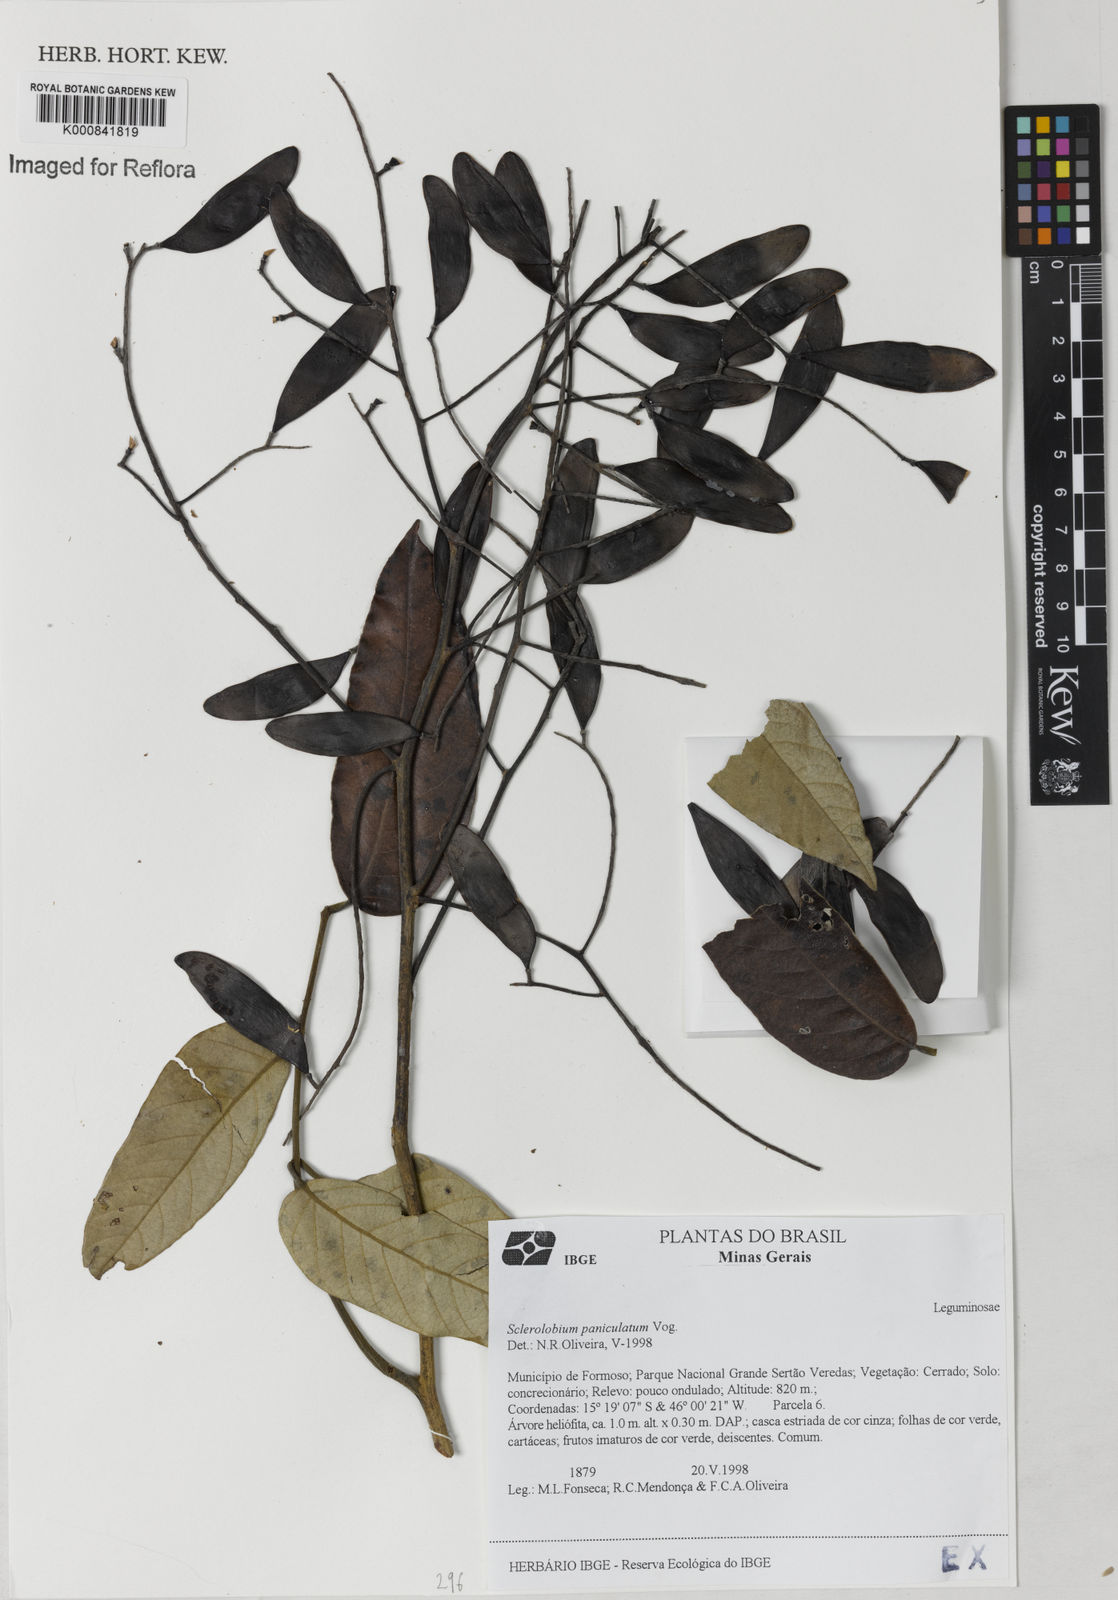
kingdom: Plantae
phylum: Tracheophyta
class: Magnoliopsida
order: Fabales
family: Fabaceae
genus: Tachigali
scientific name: Tachigali subvelutina
